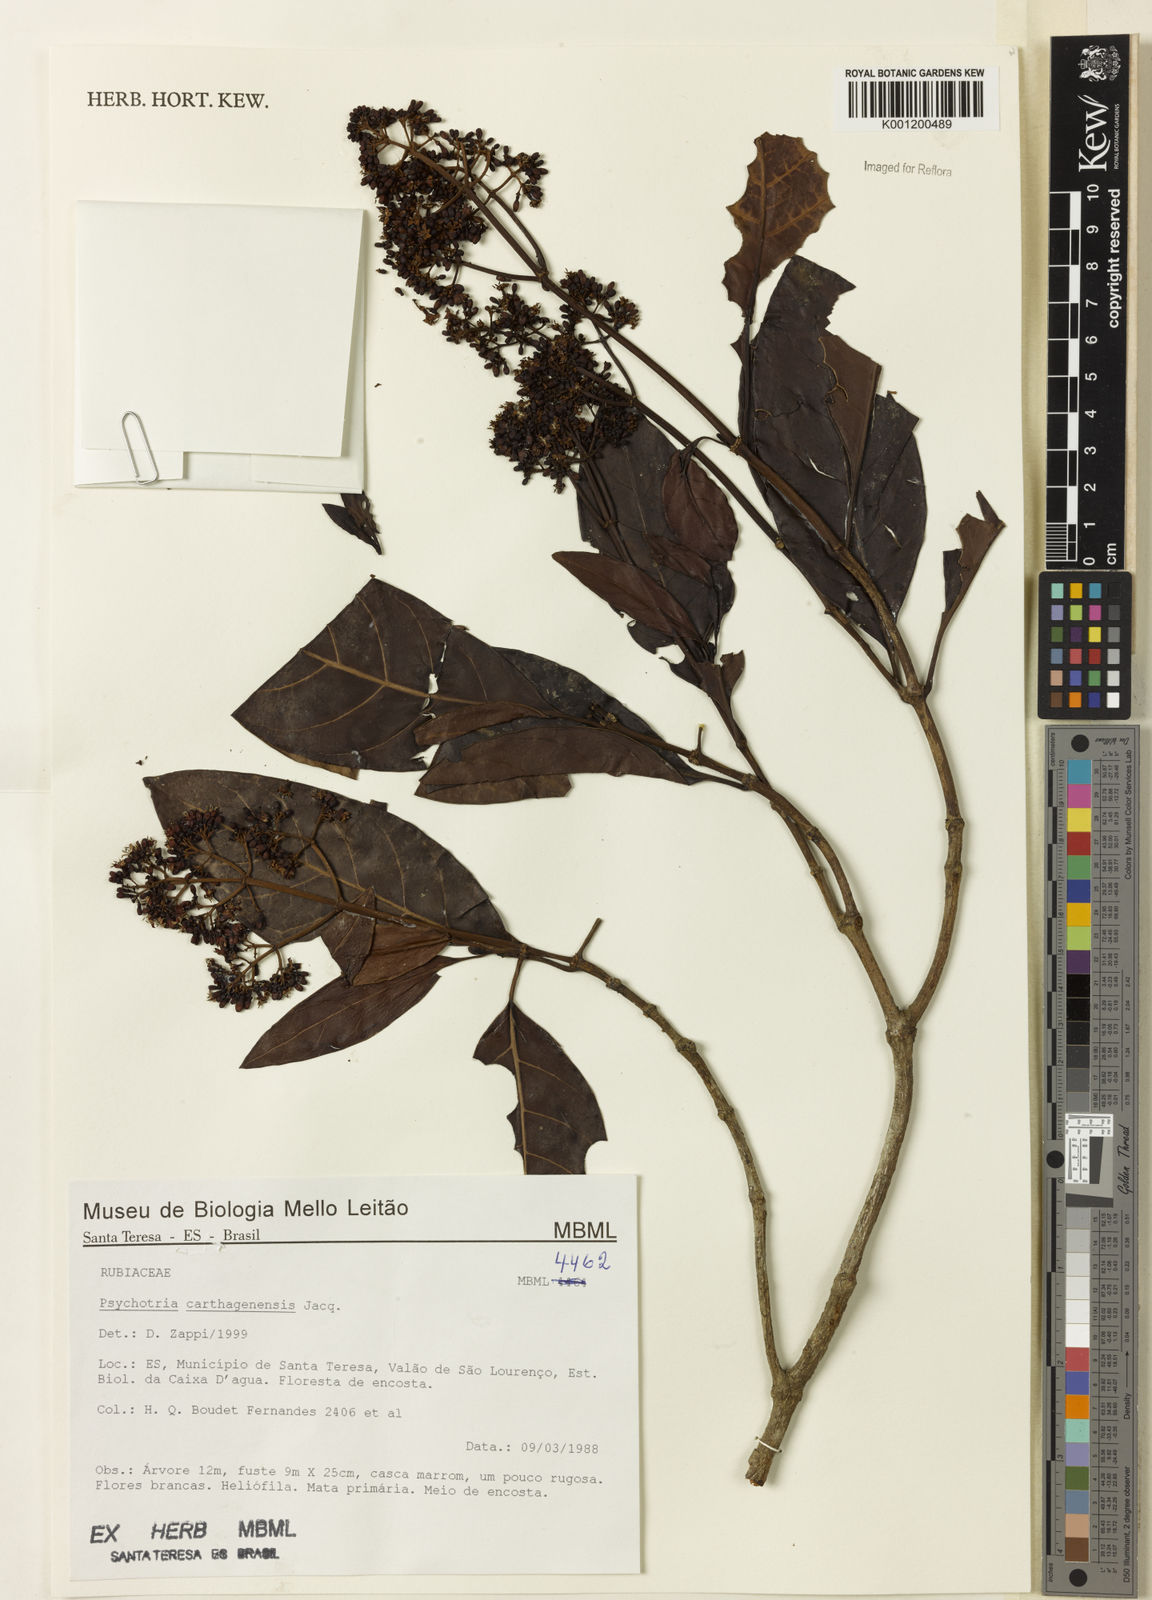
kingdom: Plantae
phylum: Tracheophyta
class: Magnoliopsida
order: Gentianales
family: Rubiaceae
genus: Psychotria
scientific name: Psychotria carthagenensis
